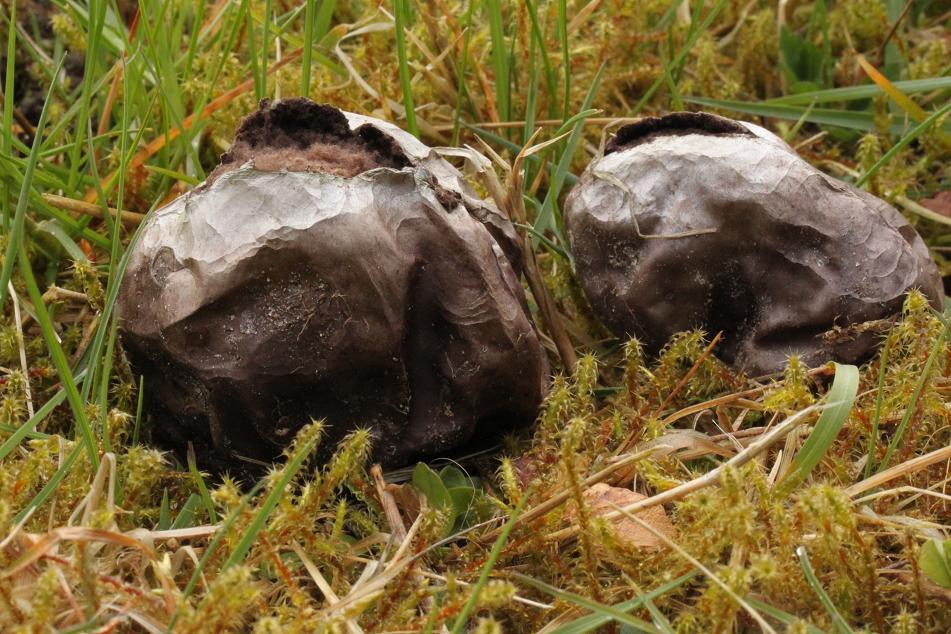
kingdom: Fungi
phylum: Basidiomycota
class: Agaricomycetes
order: Agaricales
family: Lycoperdaceae
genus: Bovista
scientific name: Bovista nigrescens
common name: sortagtig bovist
